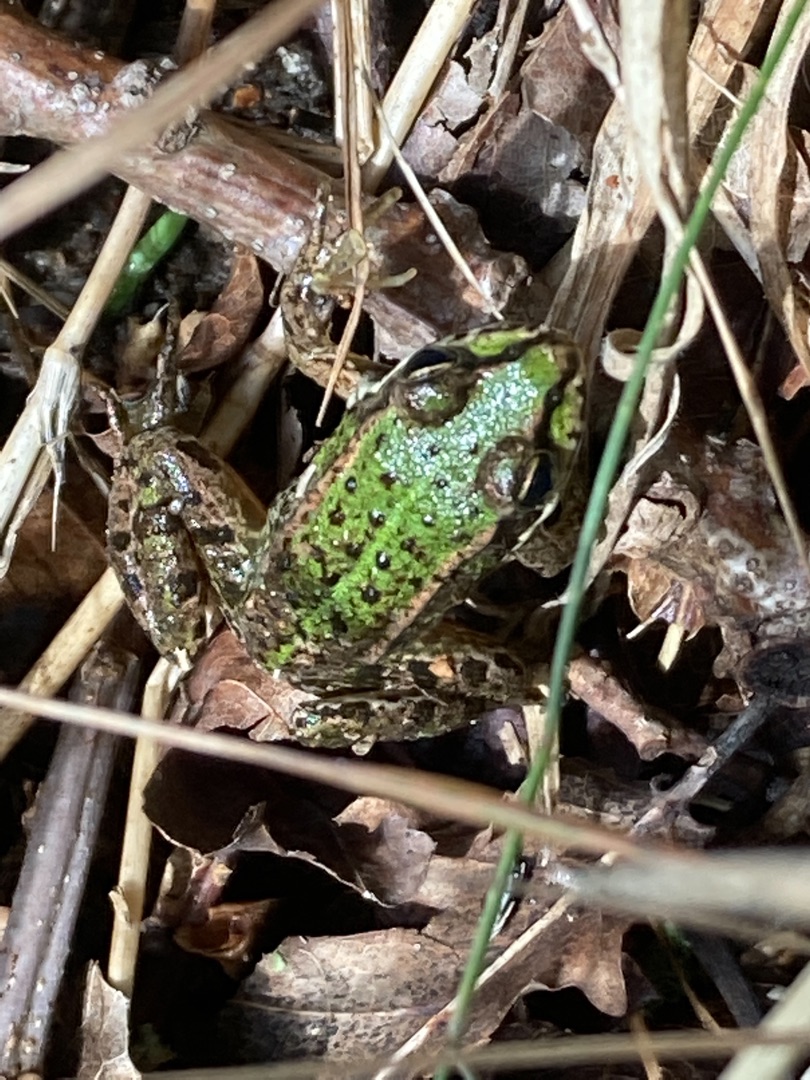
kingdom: Animalia
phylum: Chordata
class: Amphibia
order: Anura
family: Ranidae
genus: Pelophylax
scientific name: Pelophylax lessonae
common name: Grøn frø
